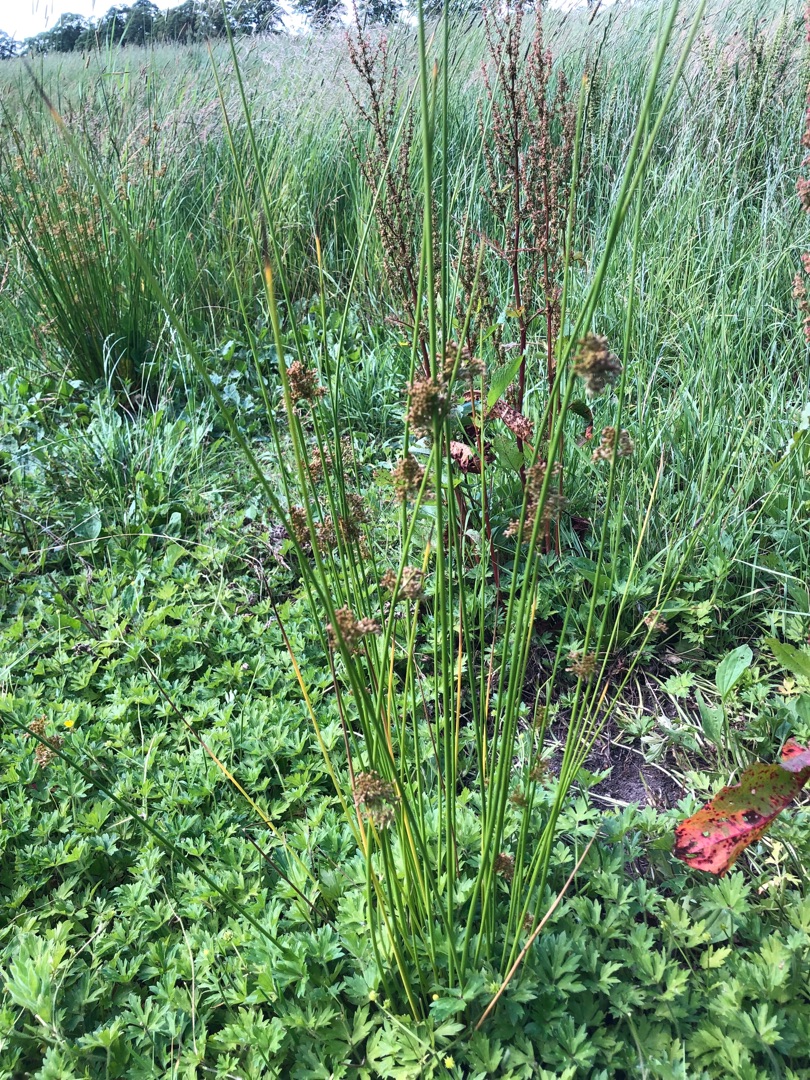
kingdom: Plantae
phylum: Tracheophyta
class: Liliopsida
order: Poales
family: Juncaceae
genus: Juncus
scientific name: Juncus effusus
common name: Lyse-siv
